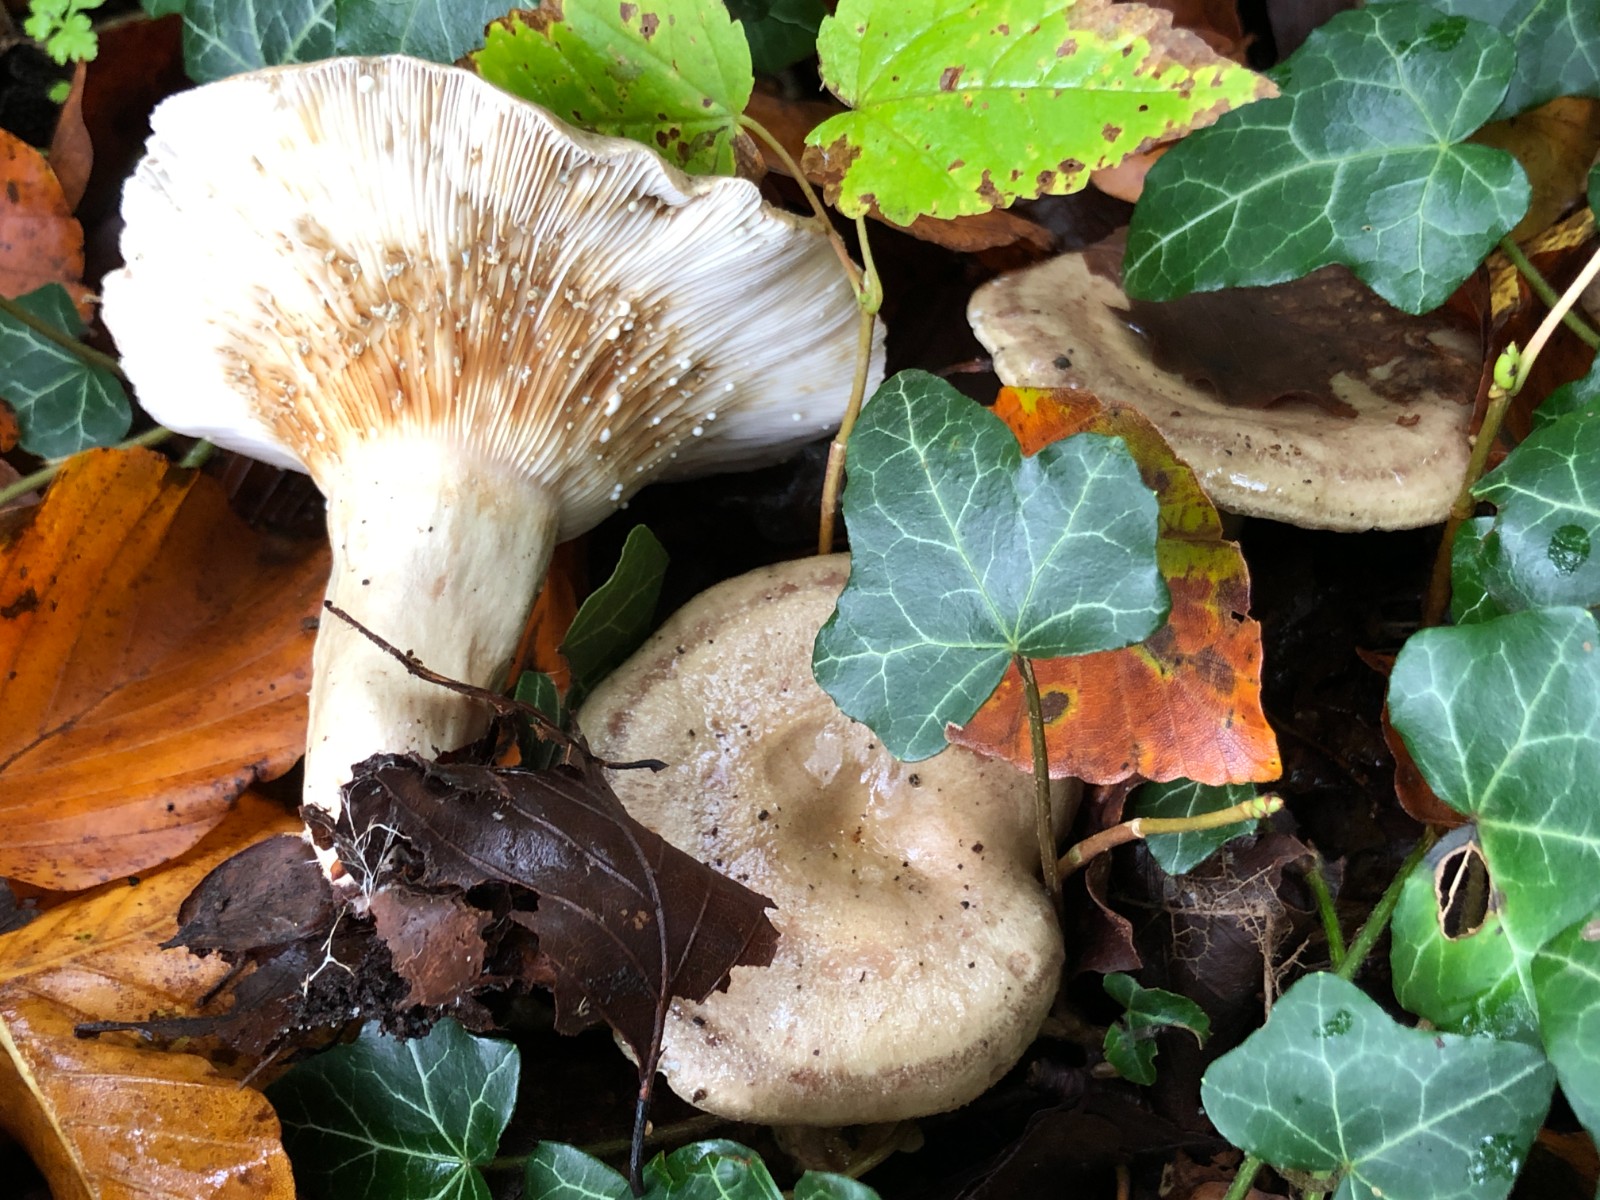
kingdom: Fungi
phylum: Basidiomycota
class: Agaricomycetes
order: Russulales
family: Russulaceae
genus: Lactarius
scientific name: Lactarius blennius
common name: dråbeplettet mælkehat
